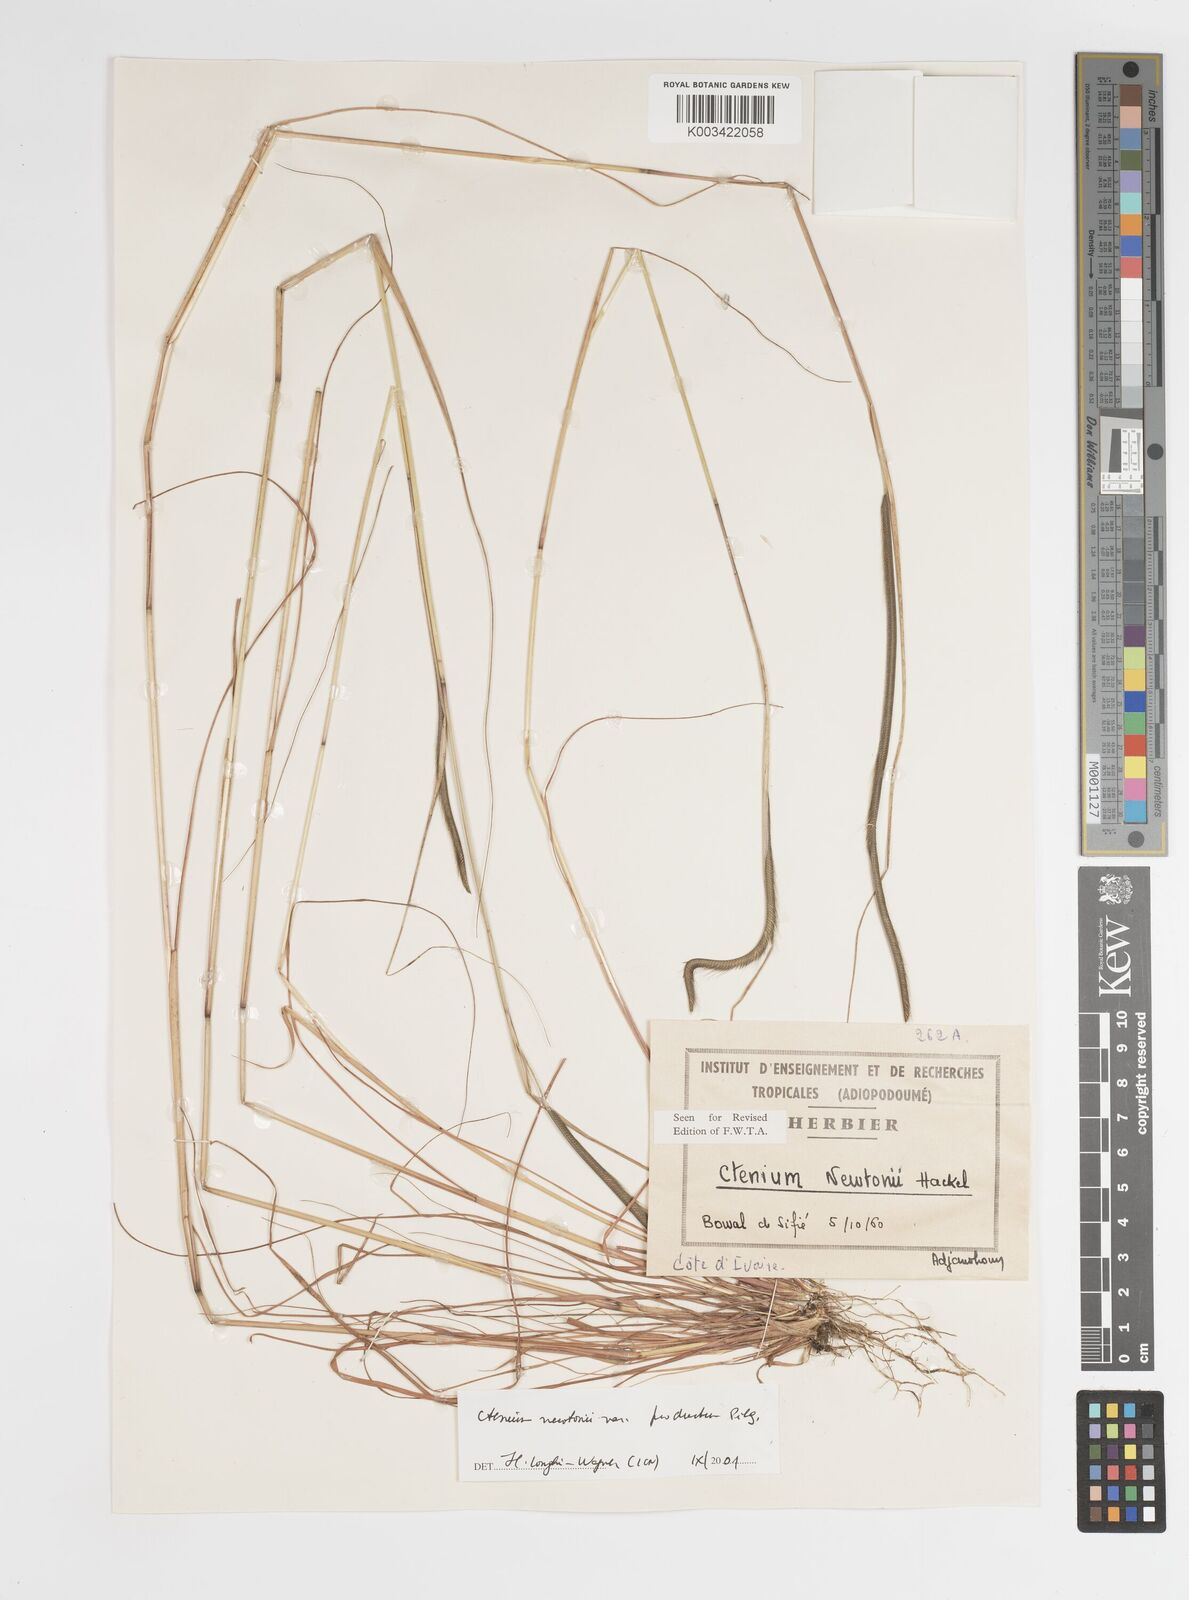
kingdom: Plantae
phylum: Tracheophyta
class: Liliopsida
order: Poales
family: Poaceae
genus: Ctenium
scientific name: Ctenium newtonii
